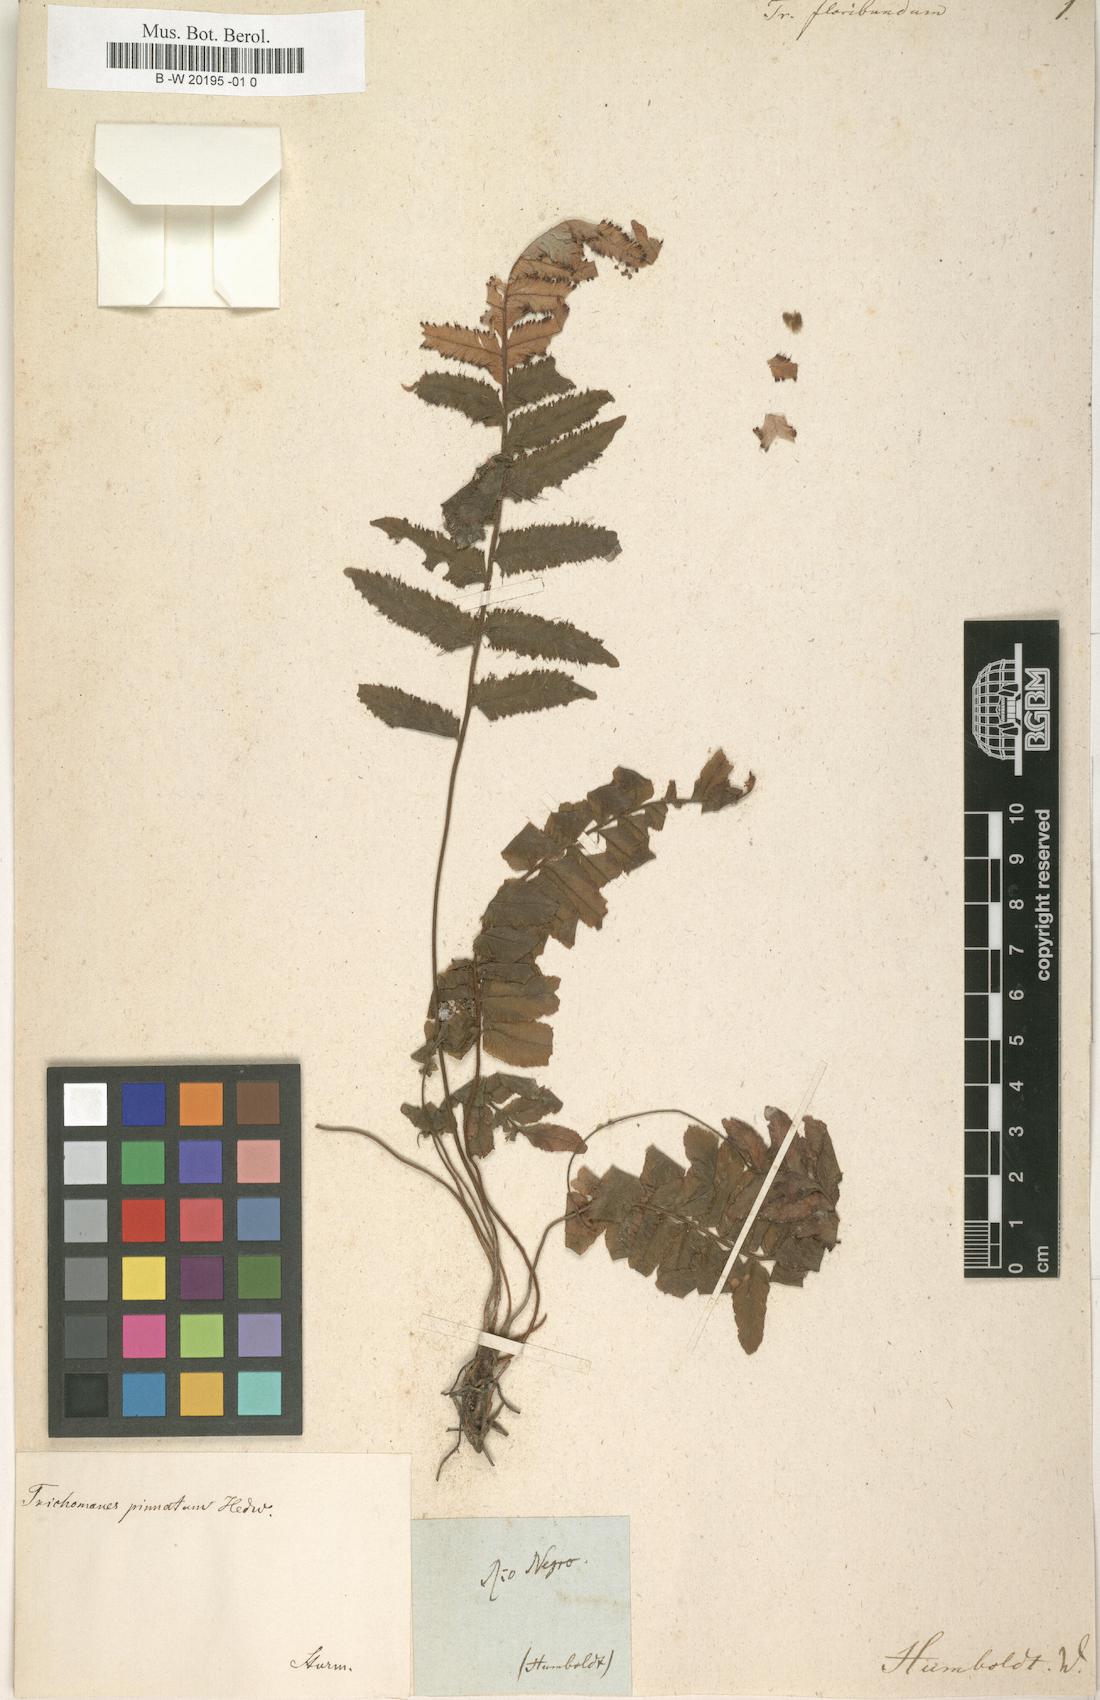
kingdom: Plantae
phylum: Tracheophyta
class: Polypodiopsida
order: Hymenophyllales
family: Hymenophyllaceae
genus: Trichomanes
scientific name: Trichomanes pinnatum
